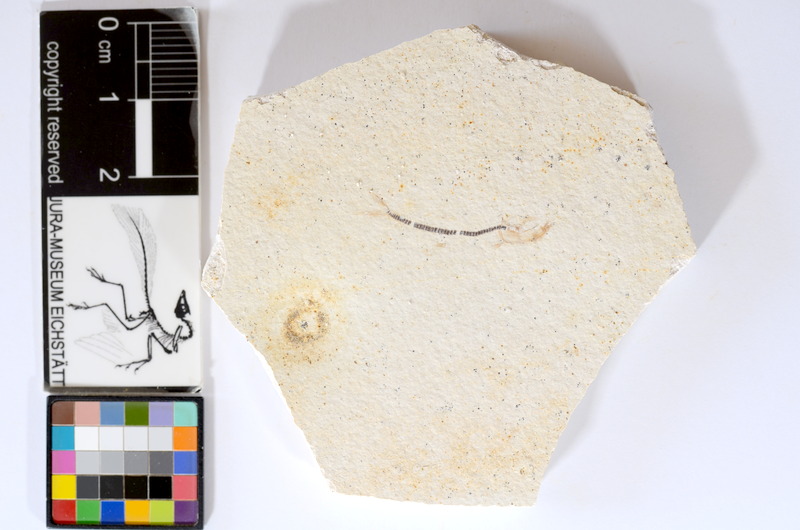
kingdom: Animalia
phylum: Chordata
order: Salmoniformes
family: Orthogonikleithridae
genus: Orthogonikleithrus
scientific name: Orthogonikleithrus hoelli
